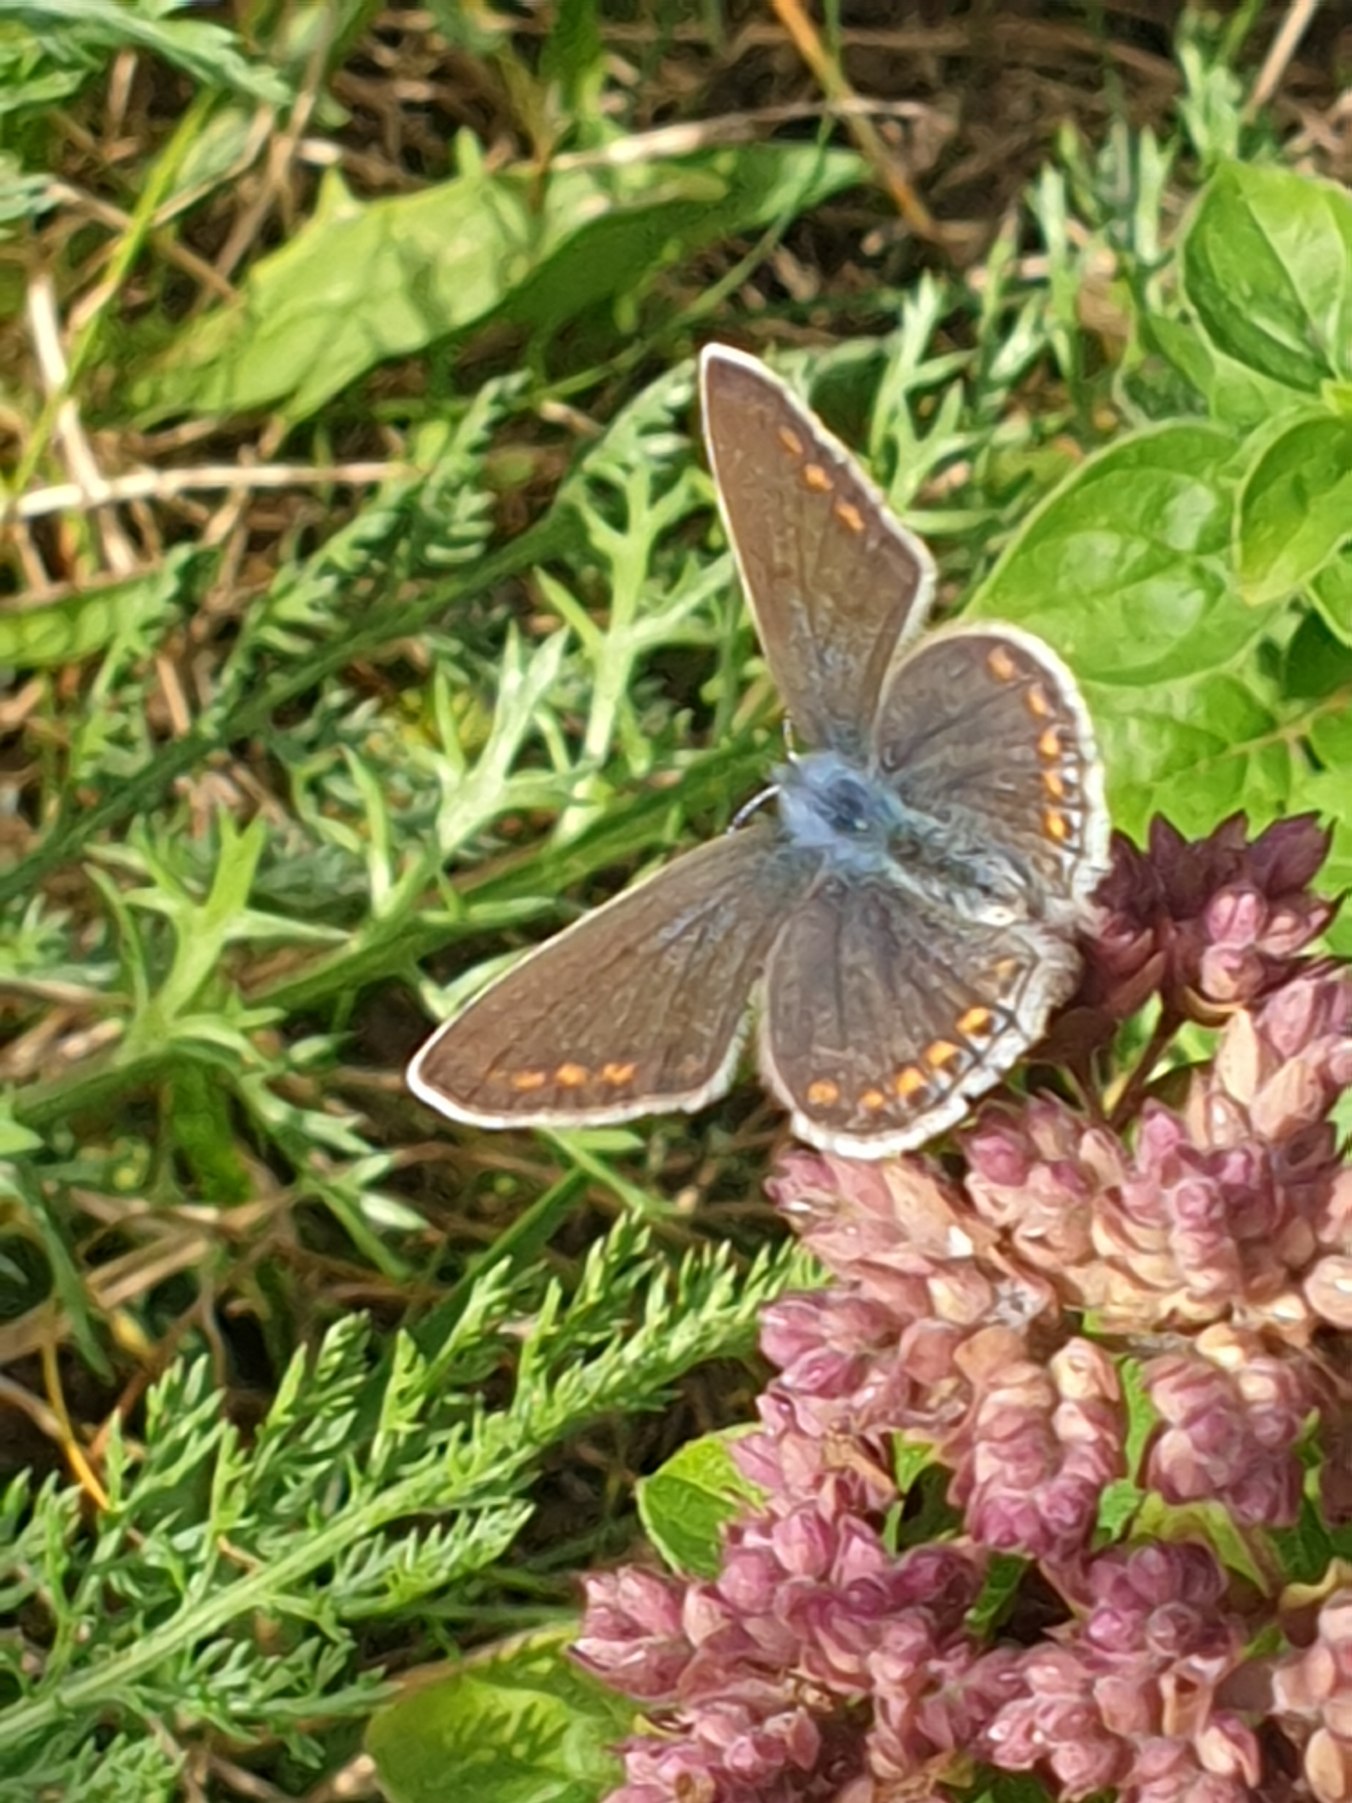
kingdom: Animalia
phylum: Arthropoda
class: Insecta
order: Lepidoptera
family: Lycaenidae
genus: Polyommatus
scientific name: Polyommatus icarus
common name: Almindelig blåfugl
